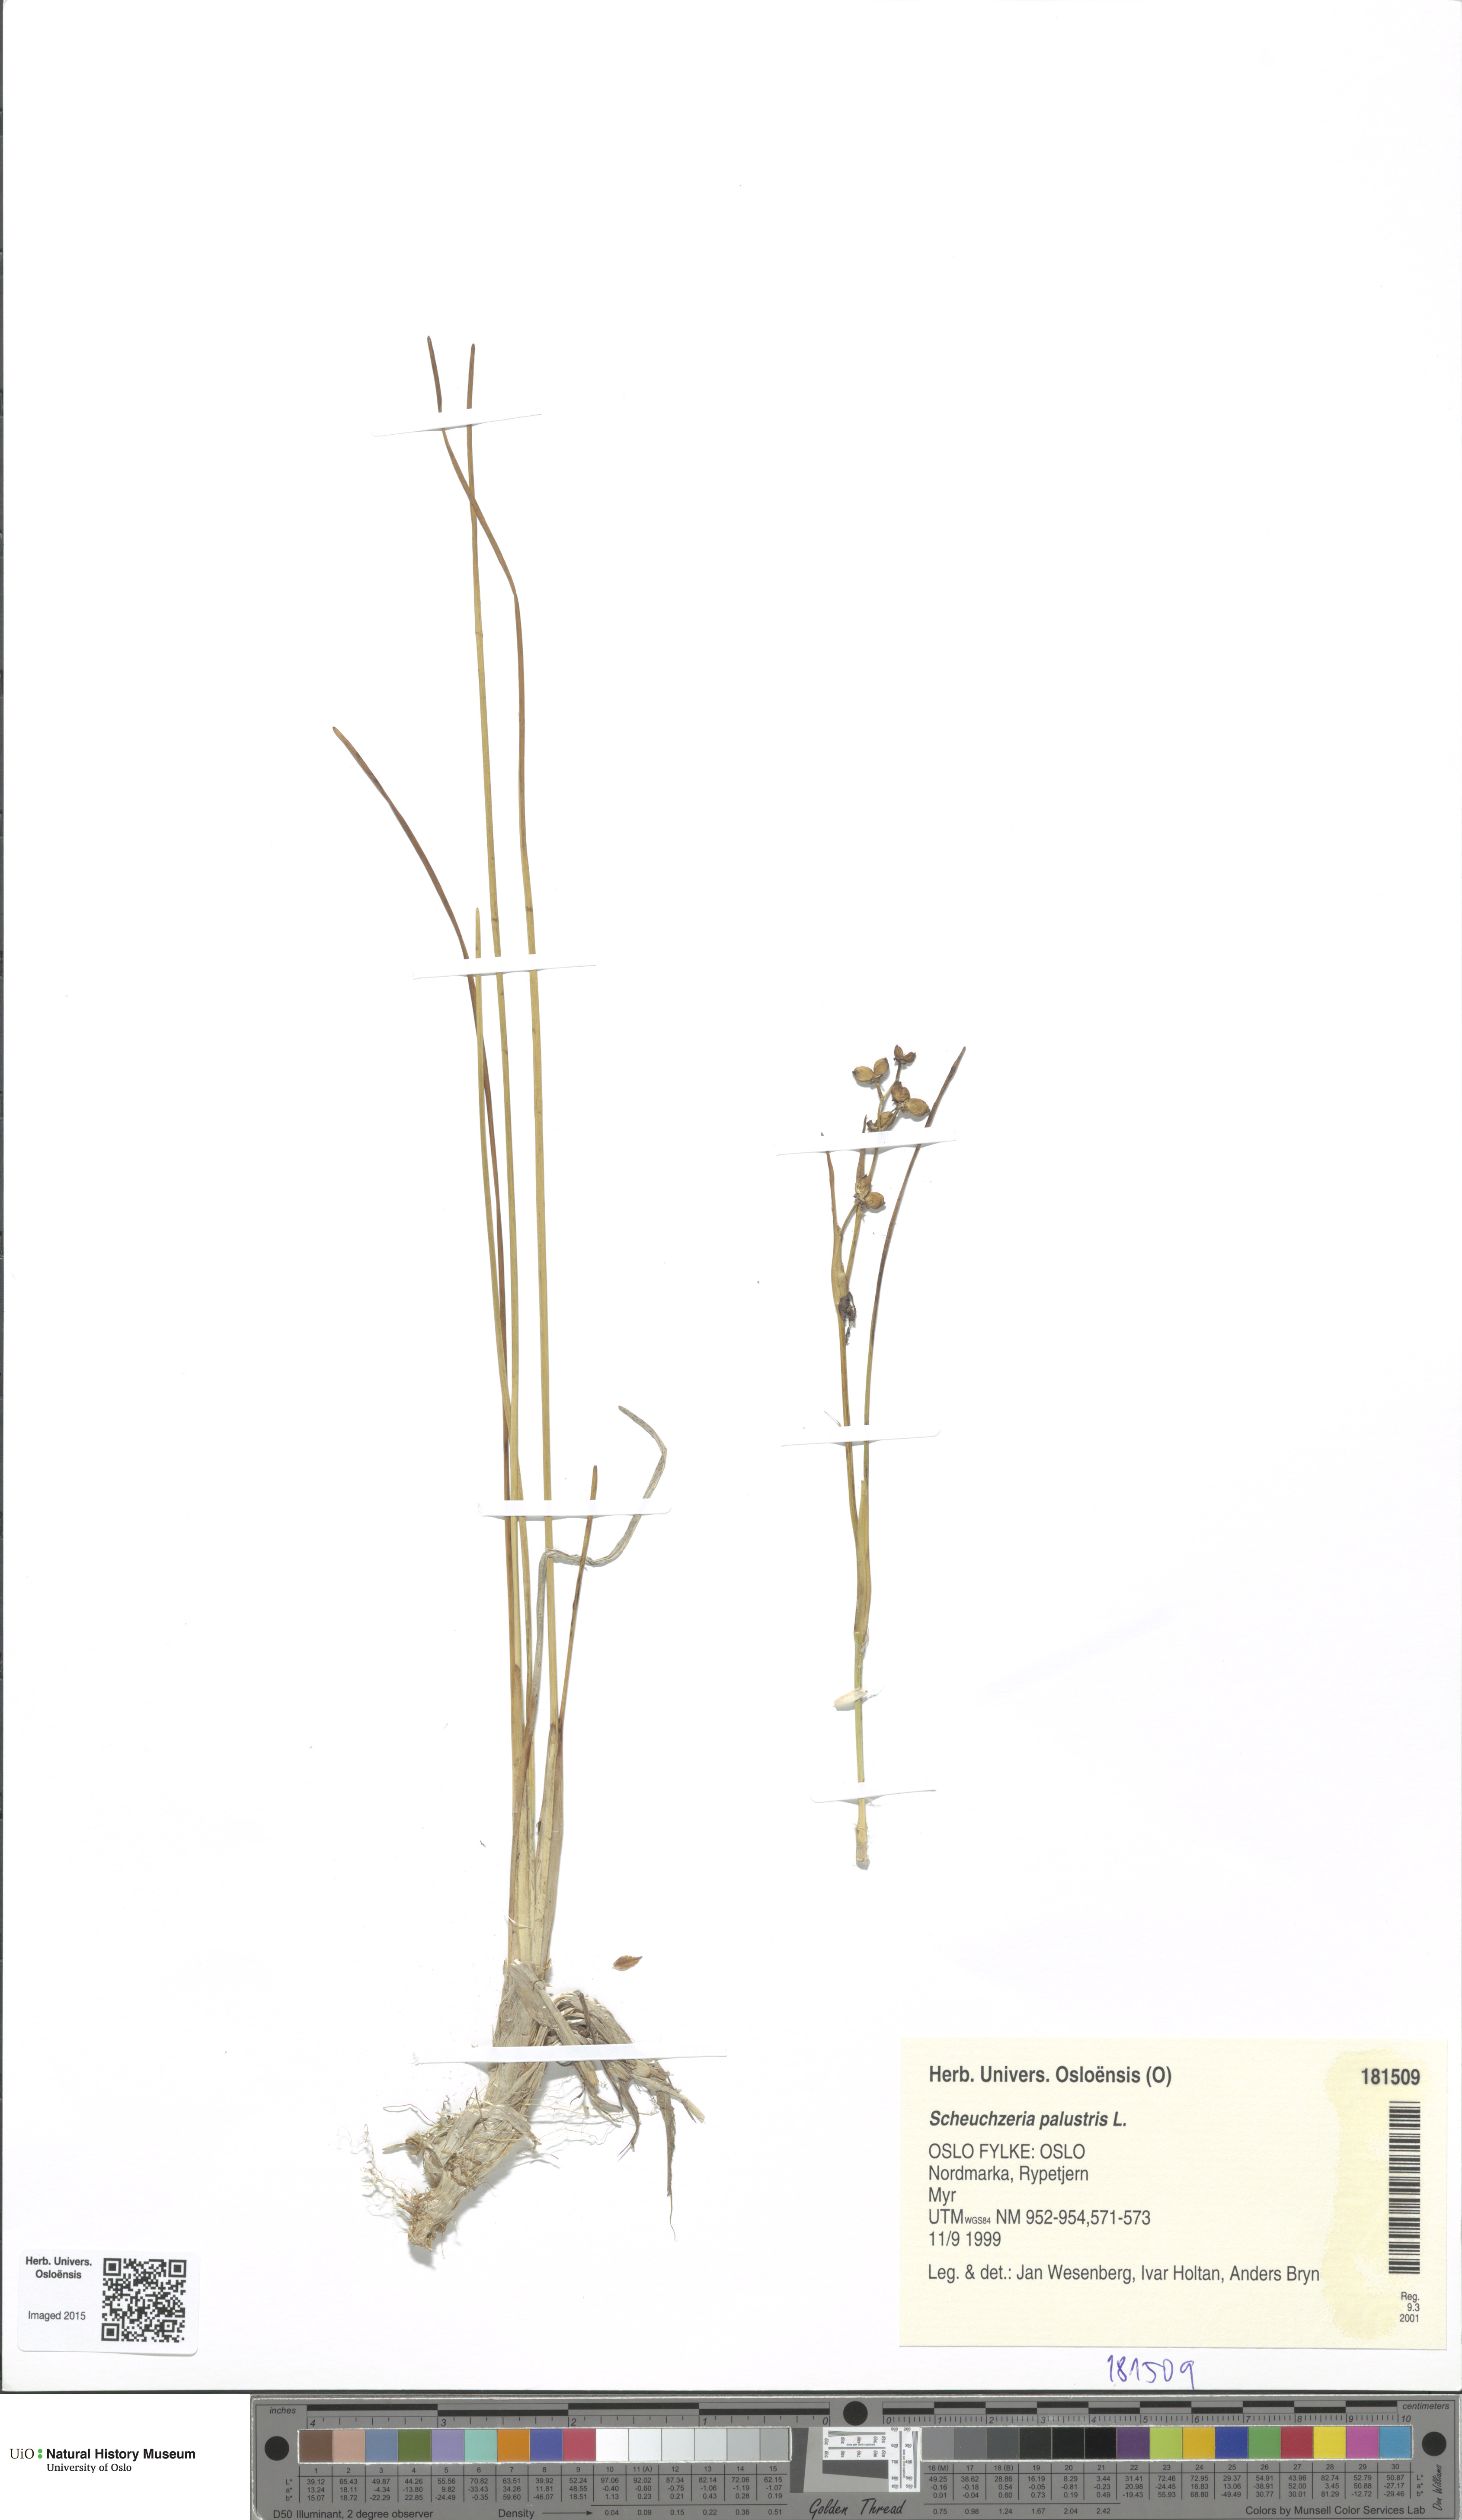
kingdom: Plantae
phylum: Tracheophyta
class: Liliopsida
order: Alismatales
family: Scheuchzeriaceae
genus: Scheuchzeria
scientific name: Scheuchzeria palustris
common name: Rannoch-rush
